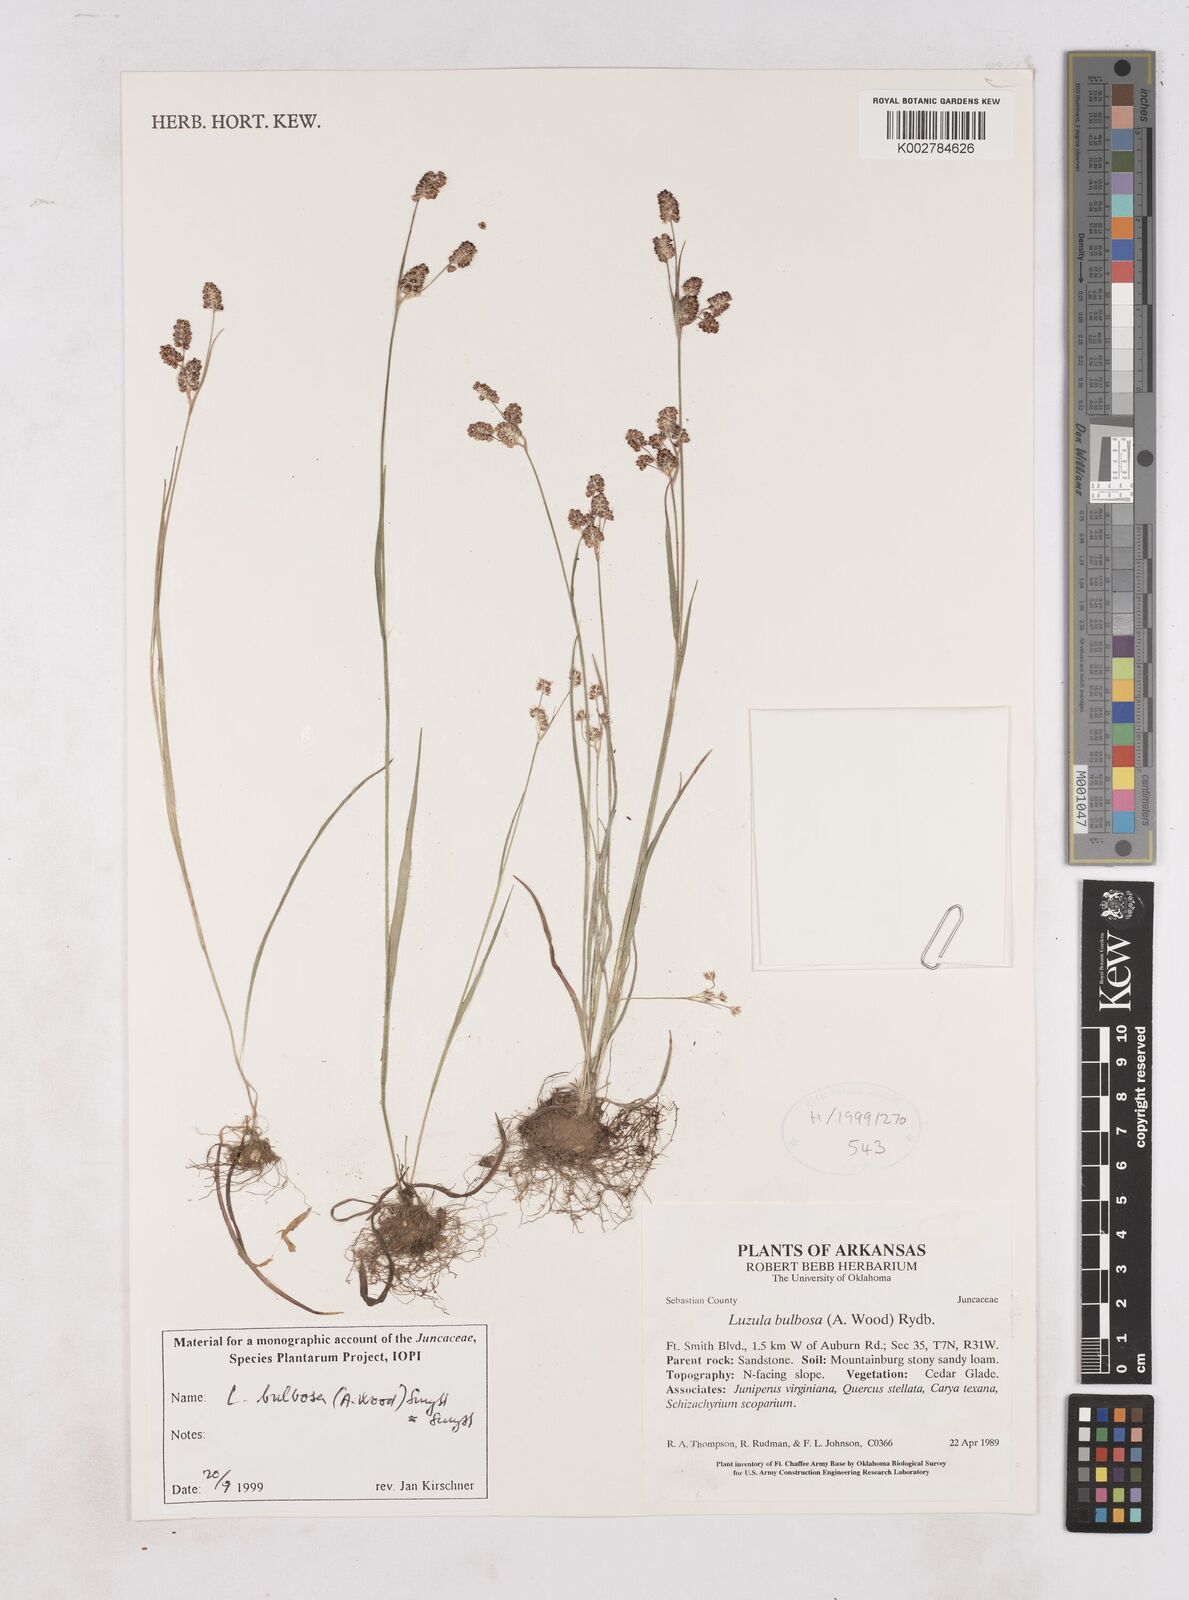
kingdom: Plantae
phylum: Tracheophyta
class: Liliopsida
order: Poales
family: Juncaceae
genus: Luzula
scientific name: Luzula bulbosa
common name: Bulbous woodrush
